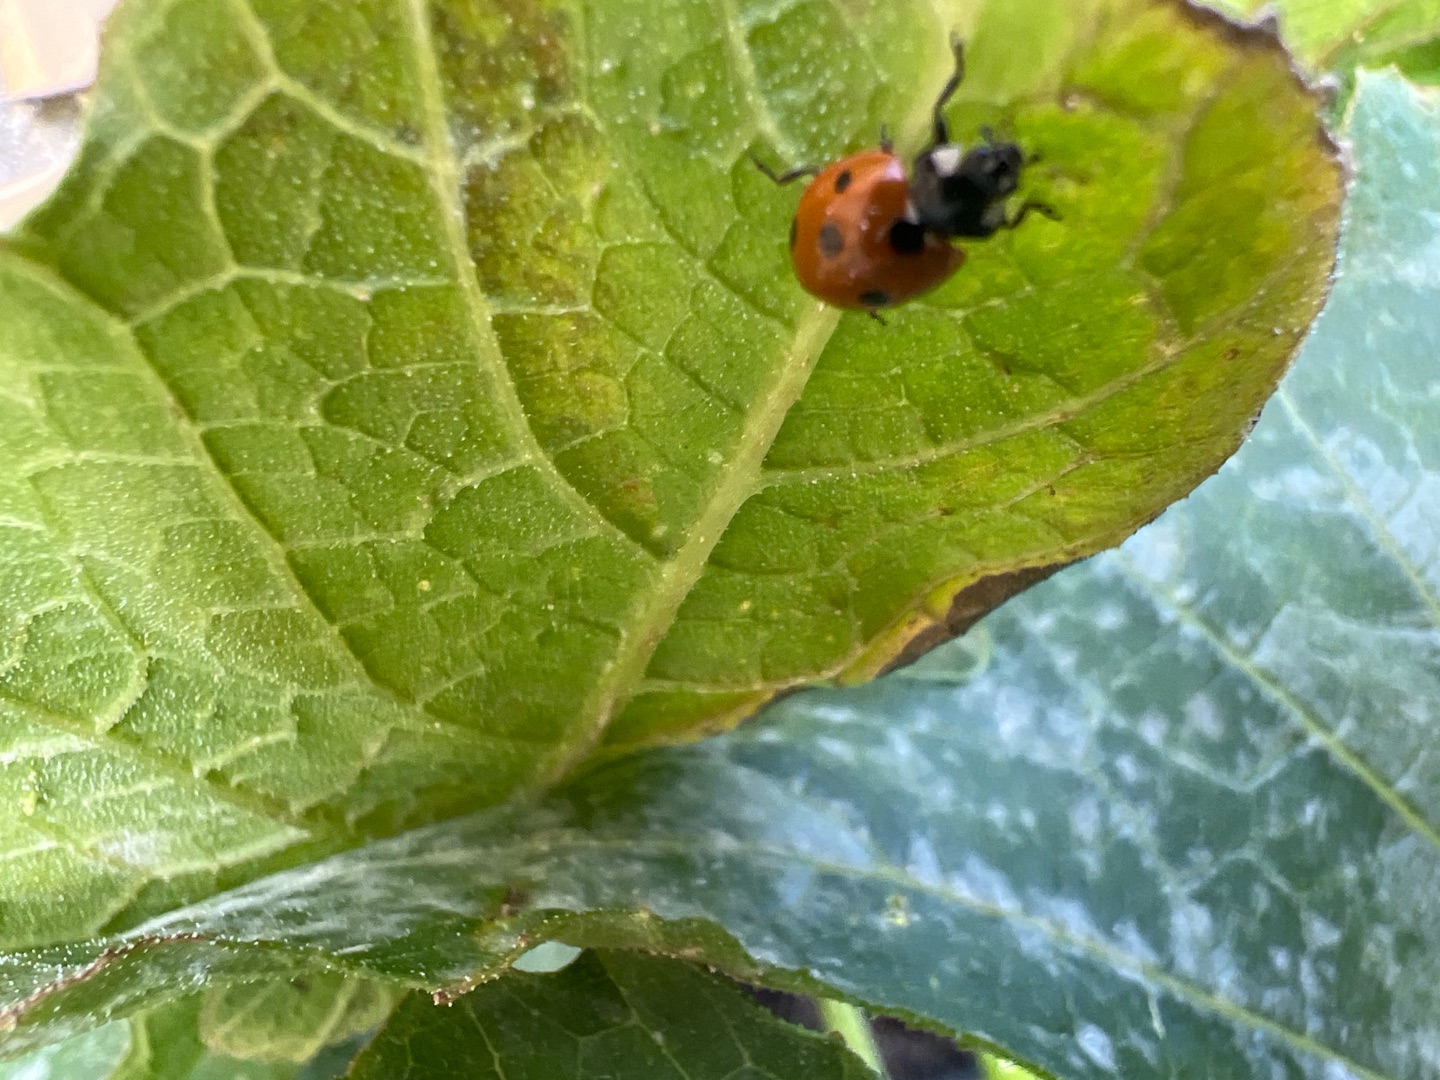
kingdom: Animalia
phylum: Arthropoda
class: Insecta
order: Coleoptera
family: Coccinellidae
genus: Coccinella
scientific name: Coccinella septempunctata
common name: Syvplettet mariehøne
